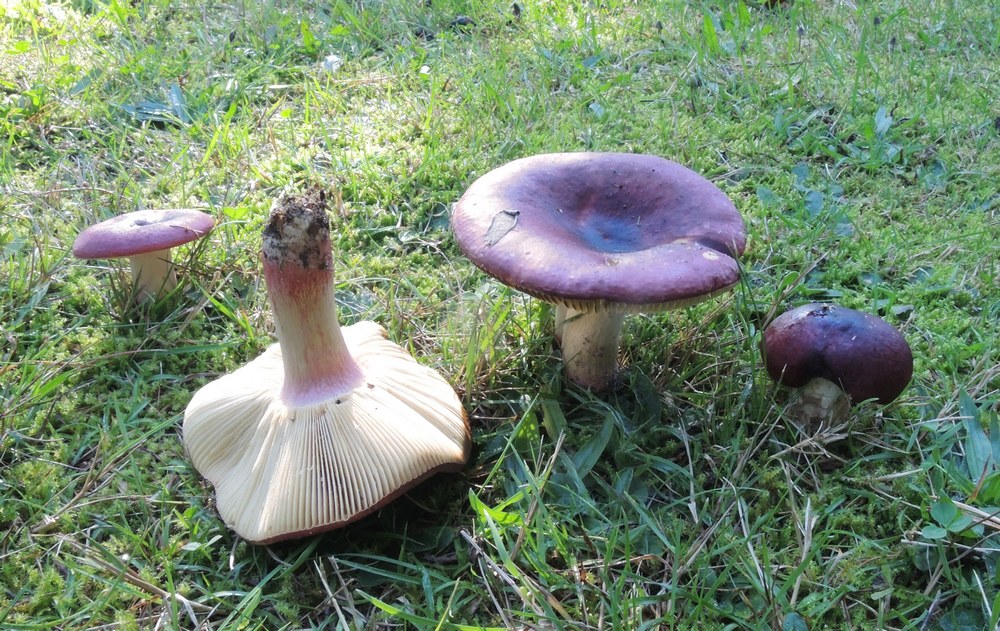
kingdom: Fungi
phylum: Basidiomycota
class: Agaricomycetes
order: Russulales
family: Russulaceae
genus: Russula
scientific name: Russula sardonia
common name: citronbladet skørhat
